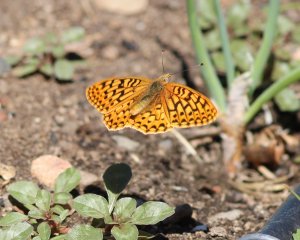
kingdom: Animalia
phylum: Arthropoda
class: Insecta
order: Lepidoptera
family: Nymphalidae
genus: Speyeria
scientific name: Speyeria callippe
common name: Callippe Fritillary
